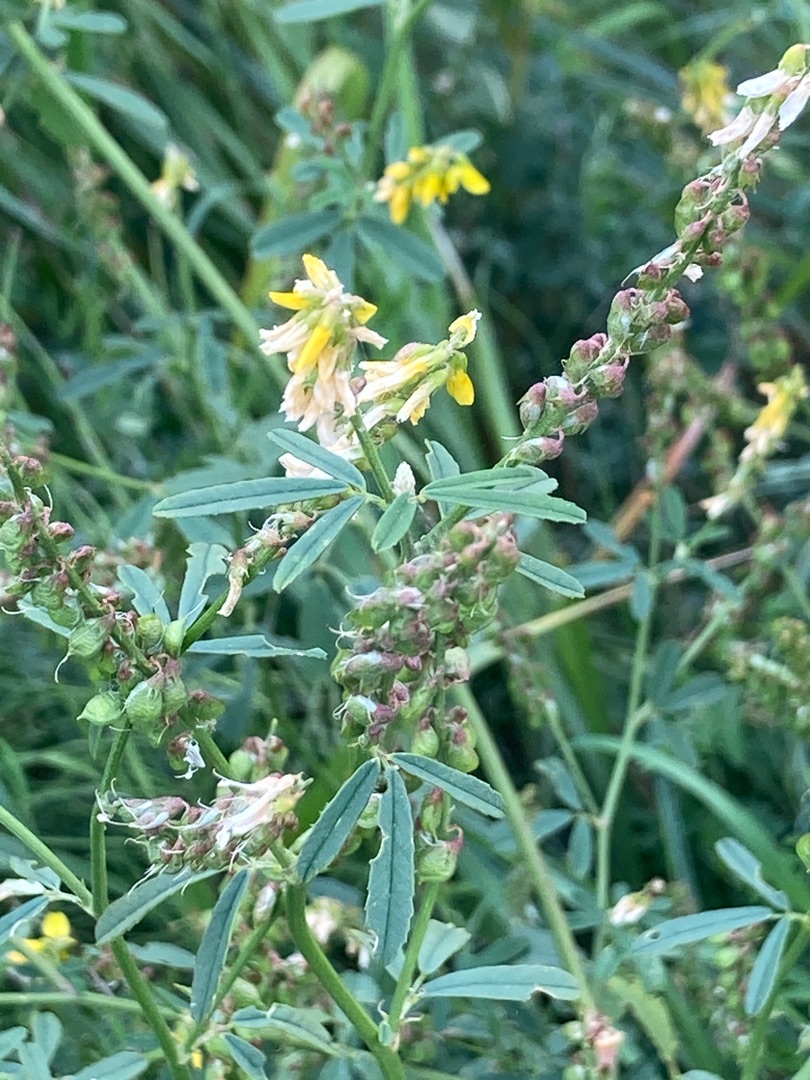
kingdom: Plantae
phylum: Tracheophyta
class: Magnoliopsida
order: Fabales
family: Fabaceae
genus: Melilotus
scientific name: Melilotus altissimus
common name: Høj stenkløver
